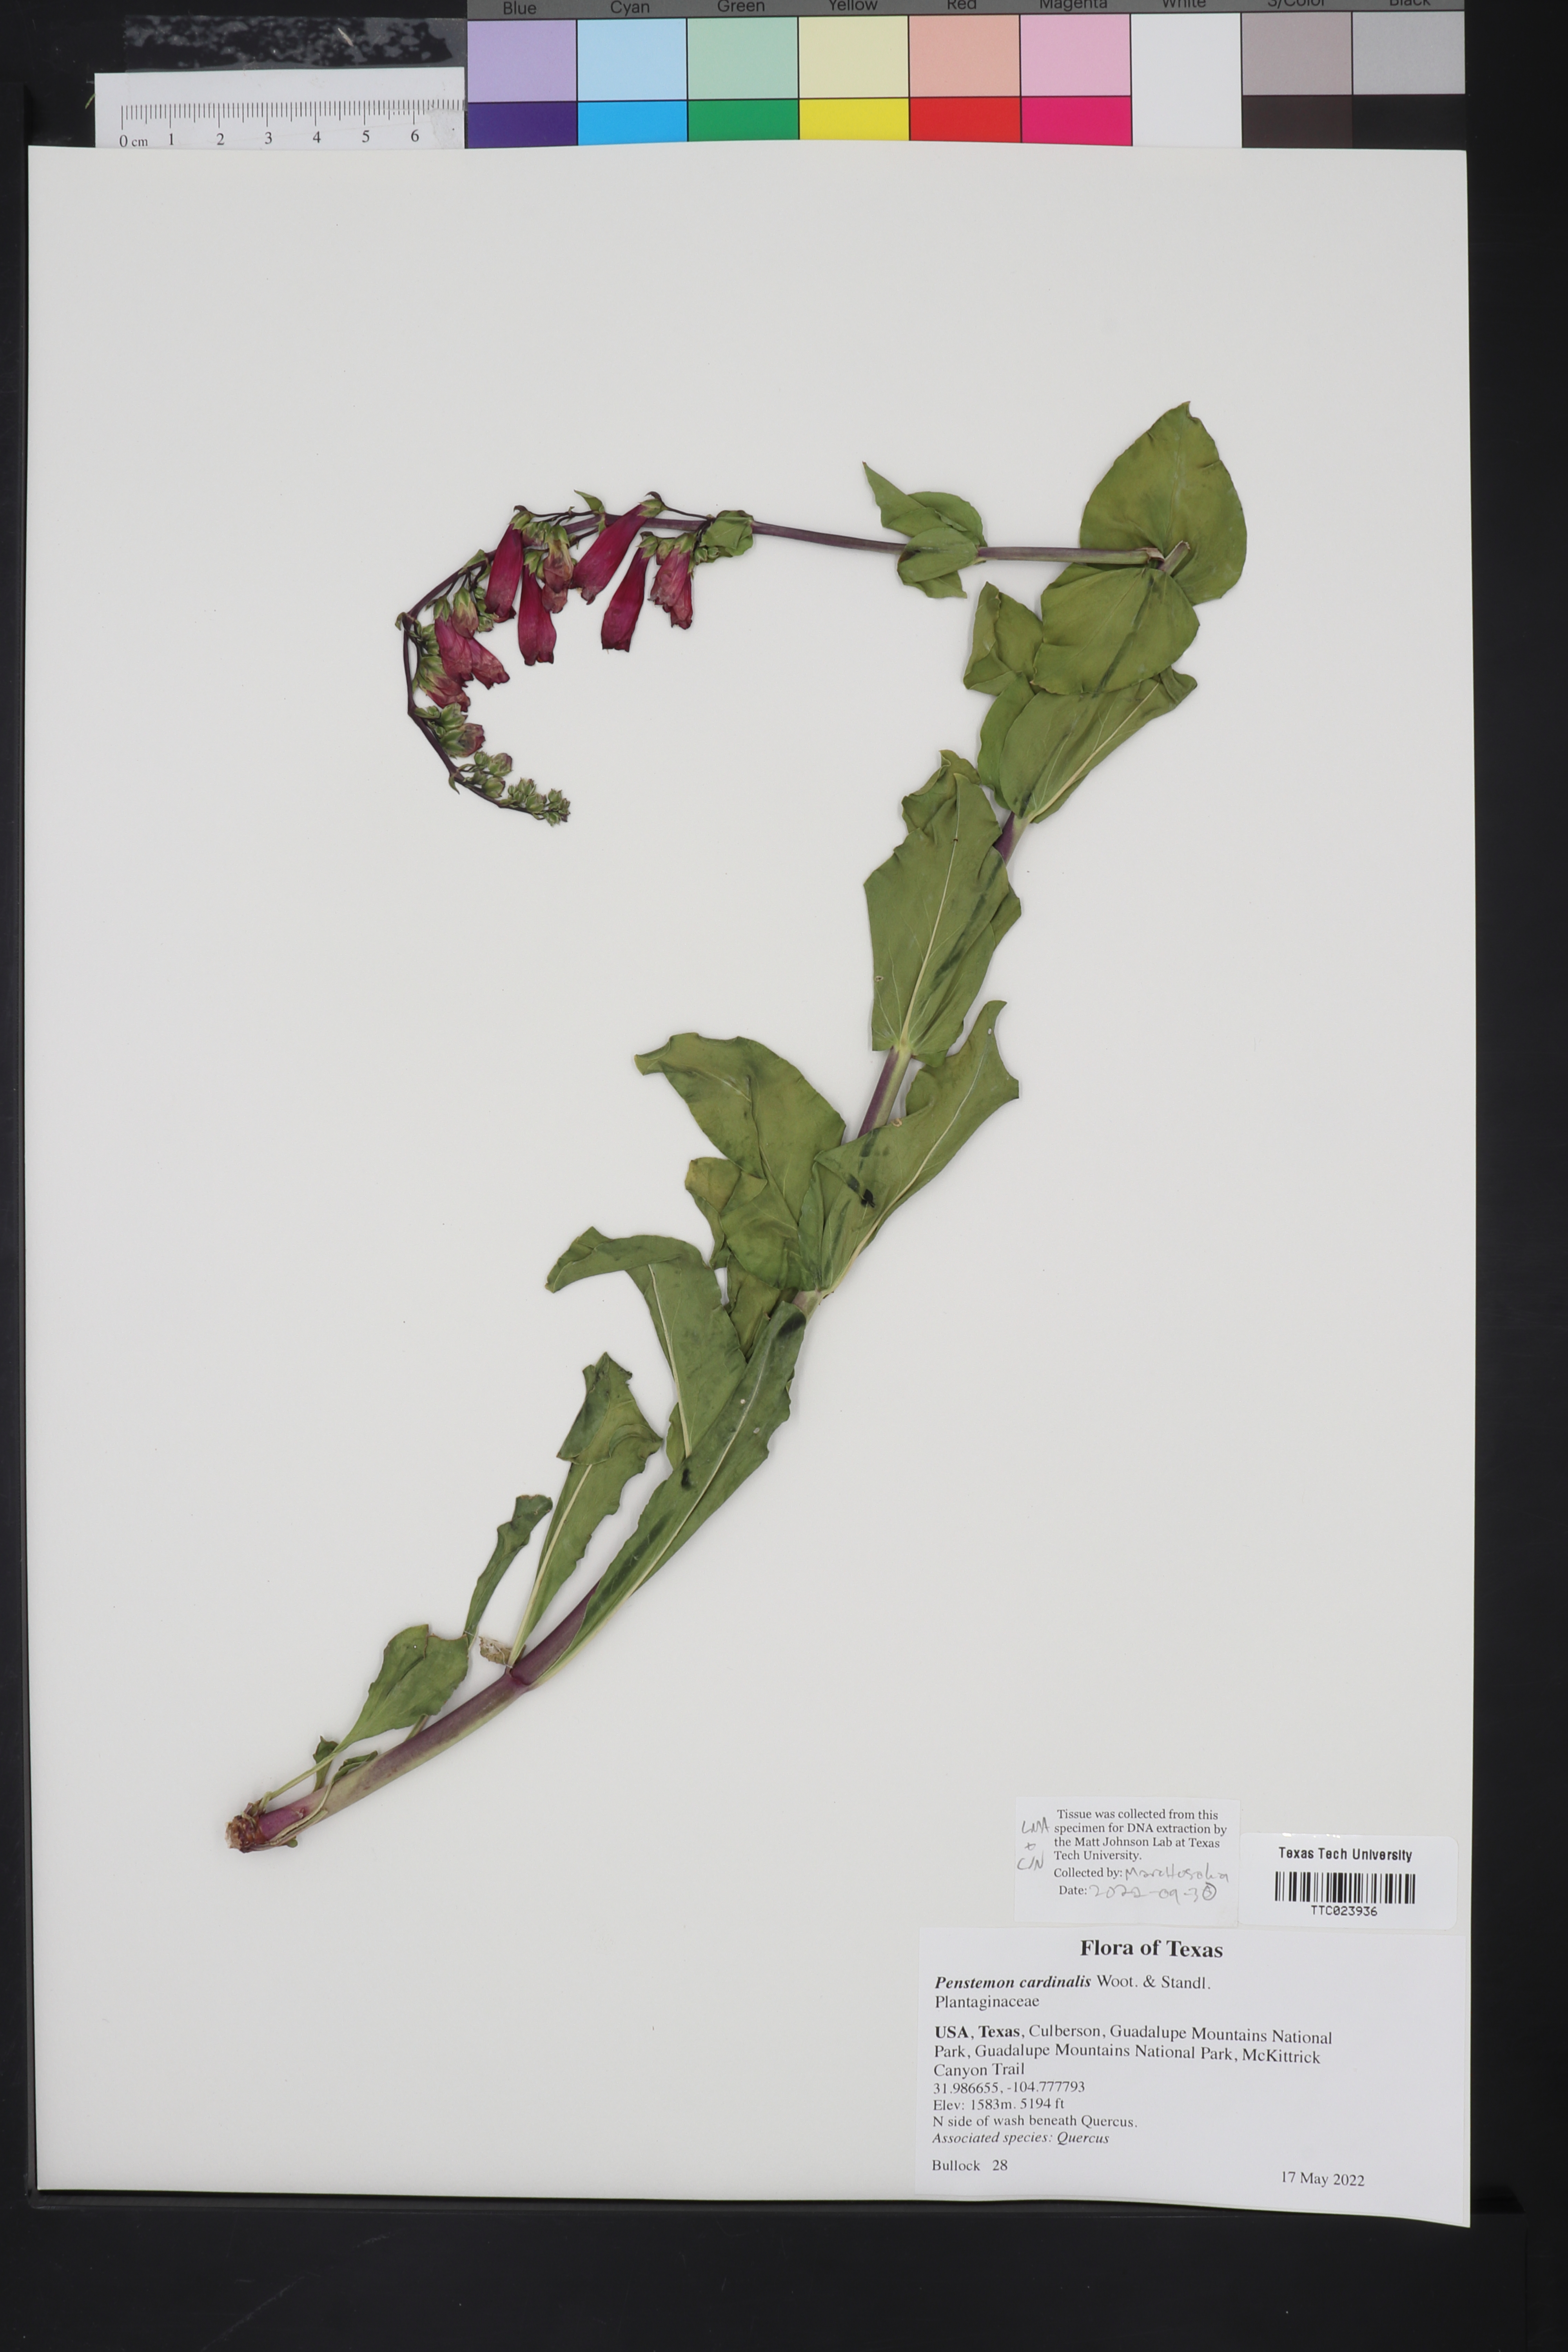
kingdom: Plantae
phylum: Tracheophyta
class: Magnoliopsida
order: Lamiales
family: Plantaginaceae
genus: Penstemon
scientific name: Penstemon cardinalis
